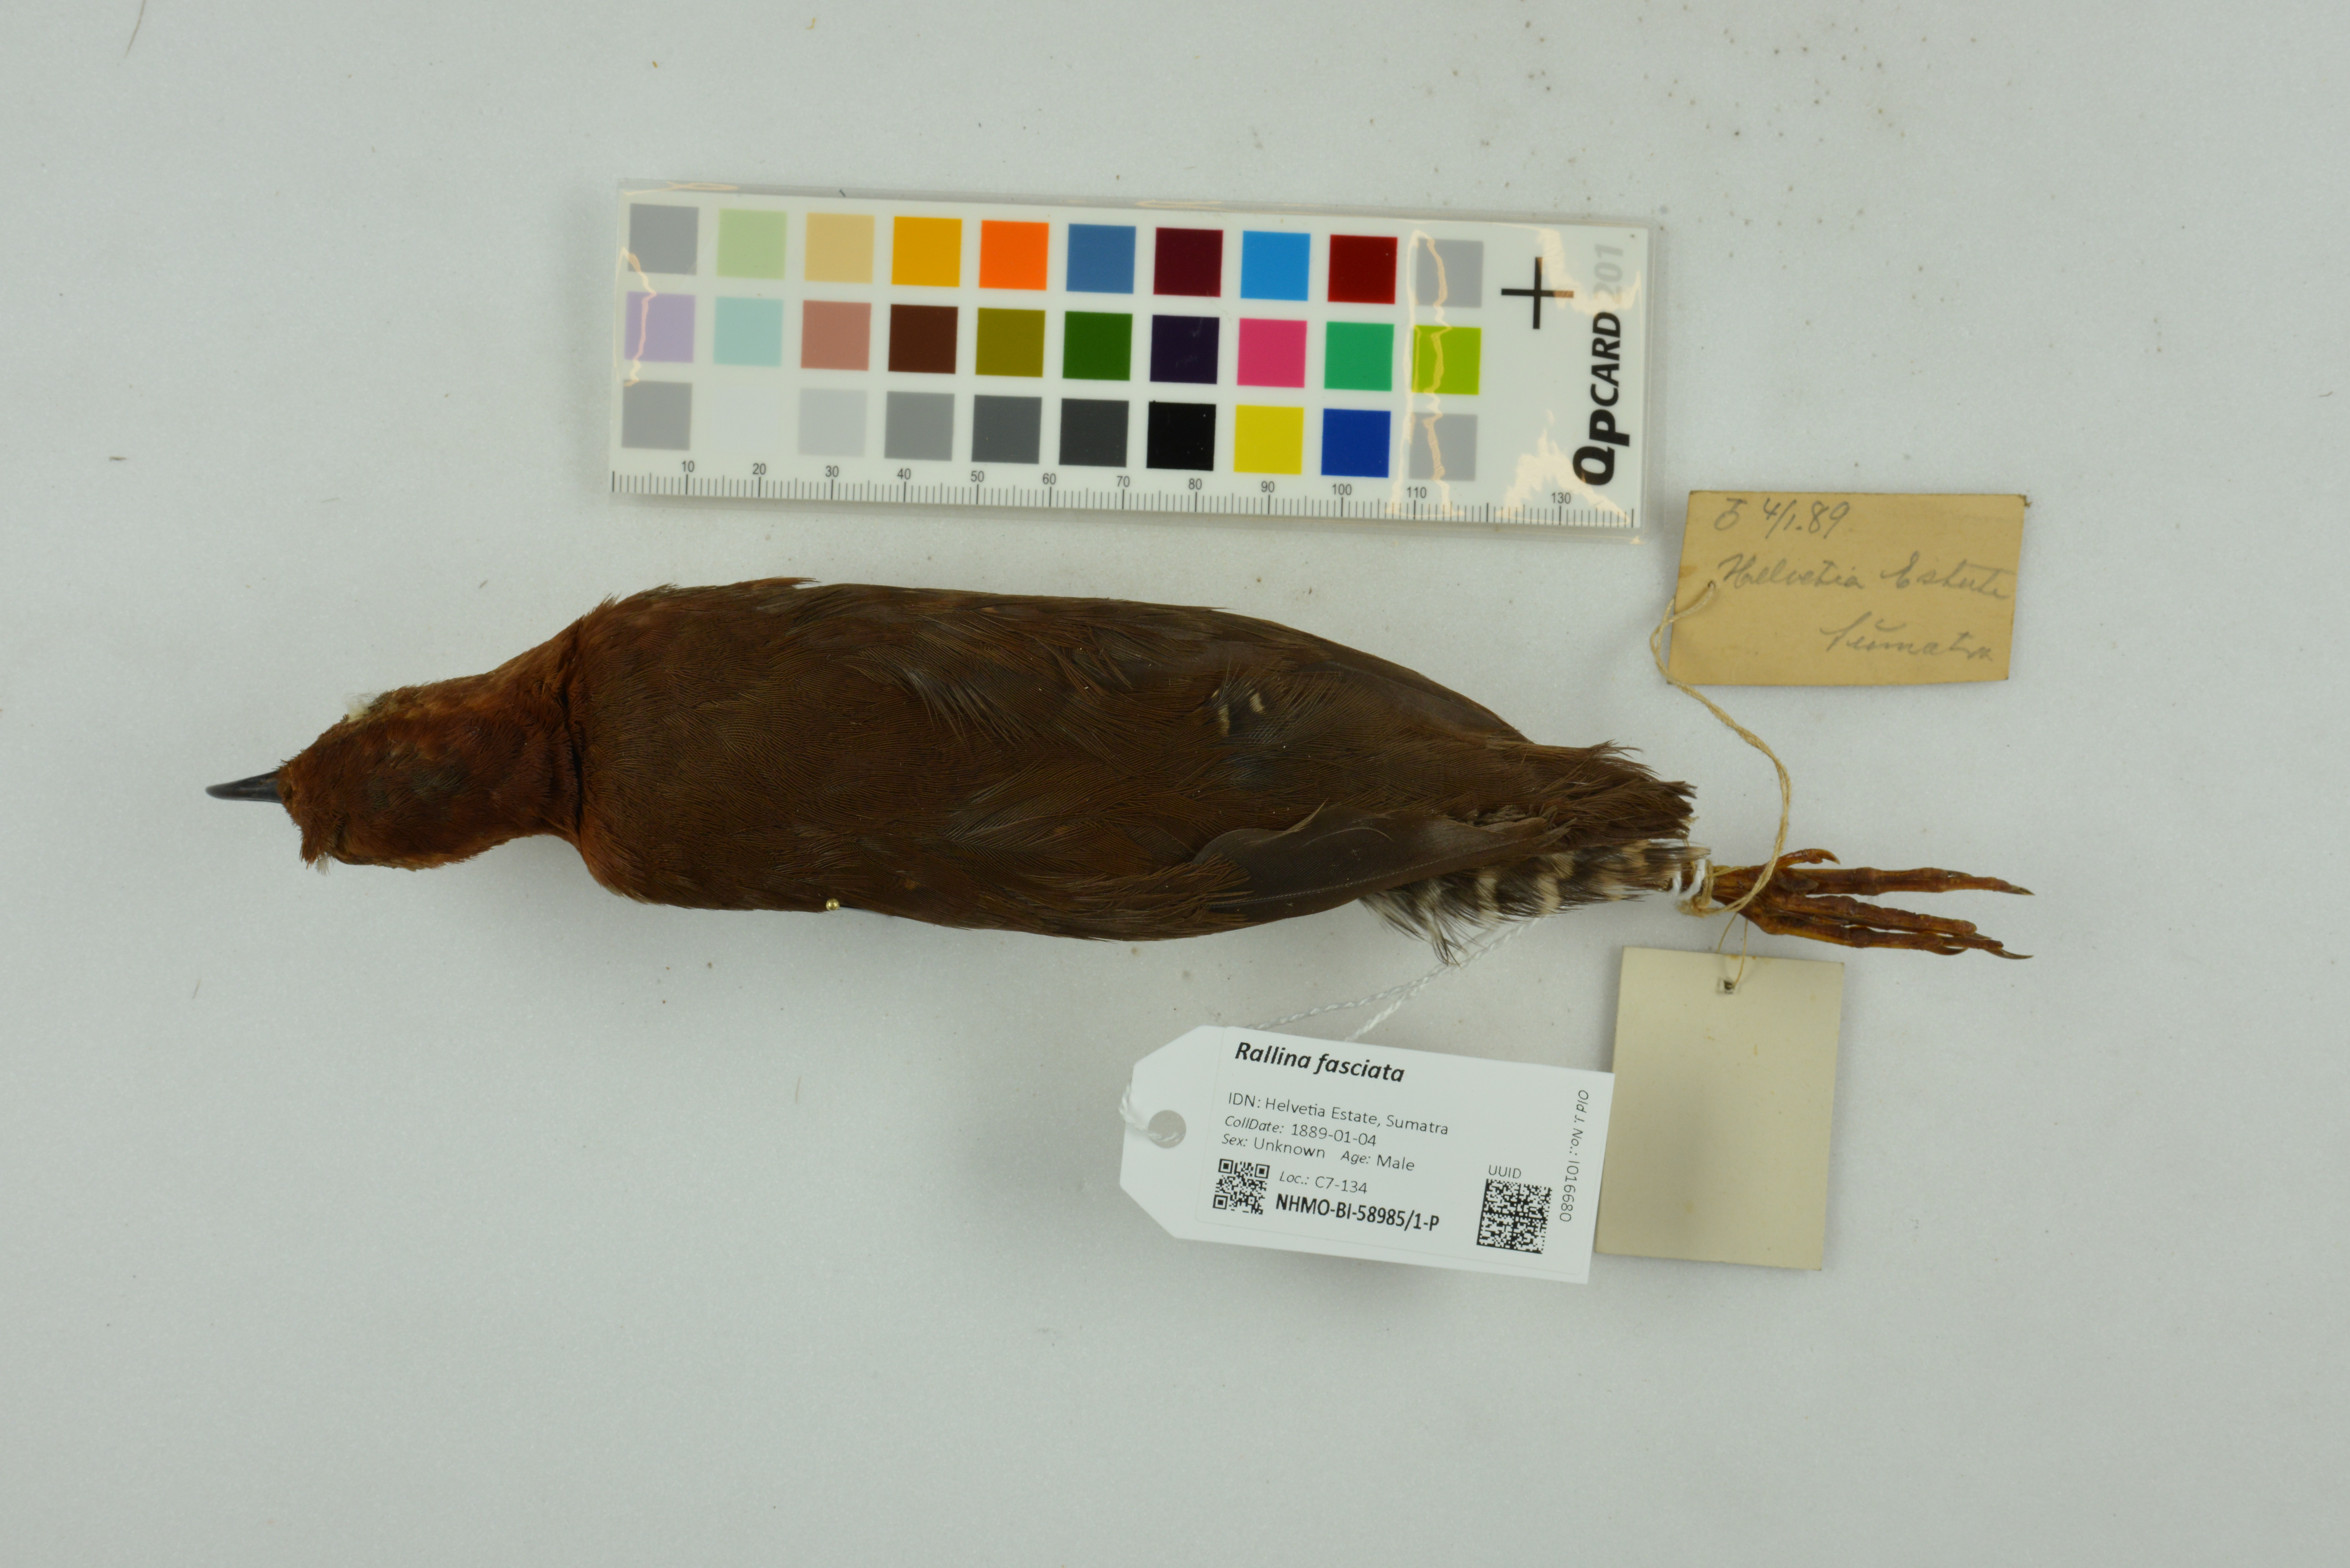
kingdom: Animalia
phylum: Chordata
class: Aves
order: Gruiformes
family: Rallidae
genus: Rallina
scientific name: Rallina fasciata
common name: Red-legged crake
